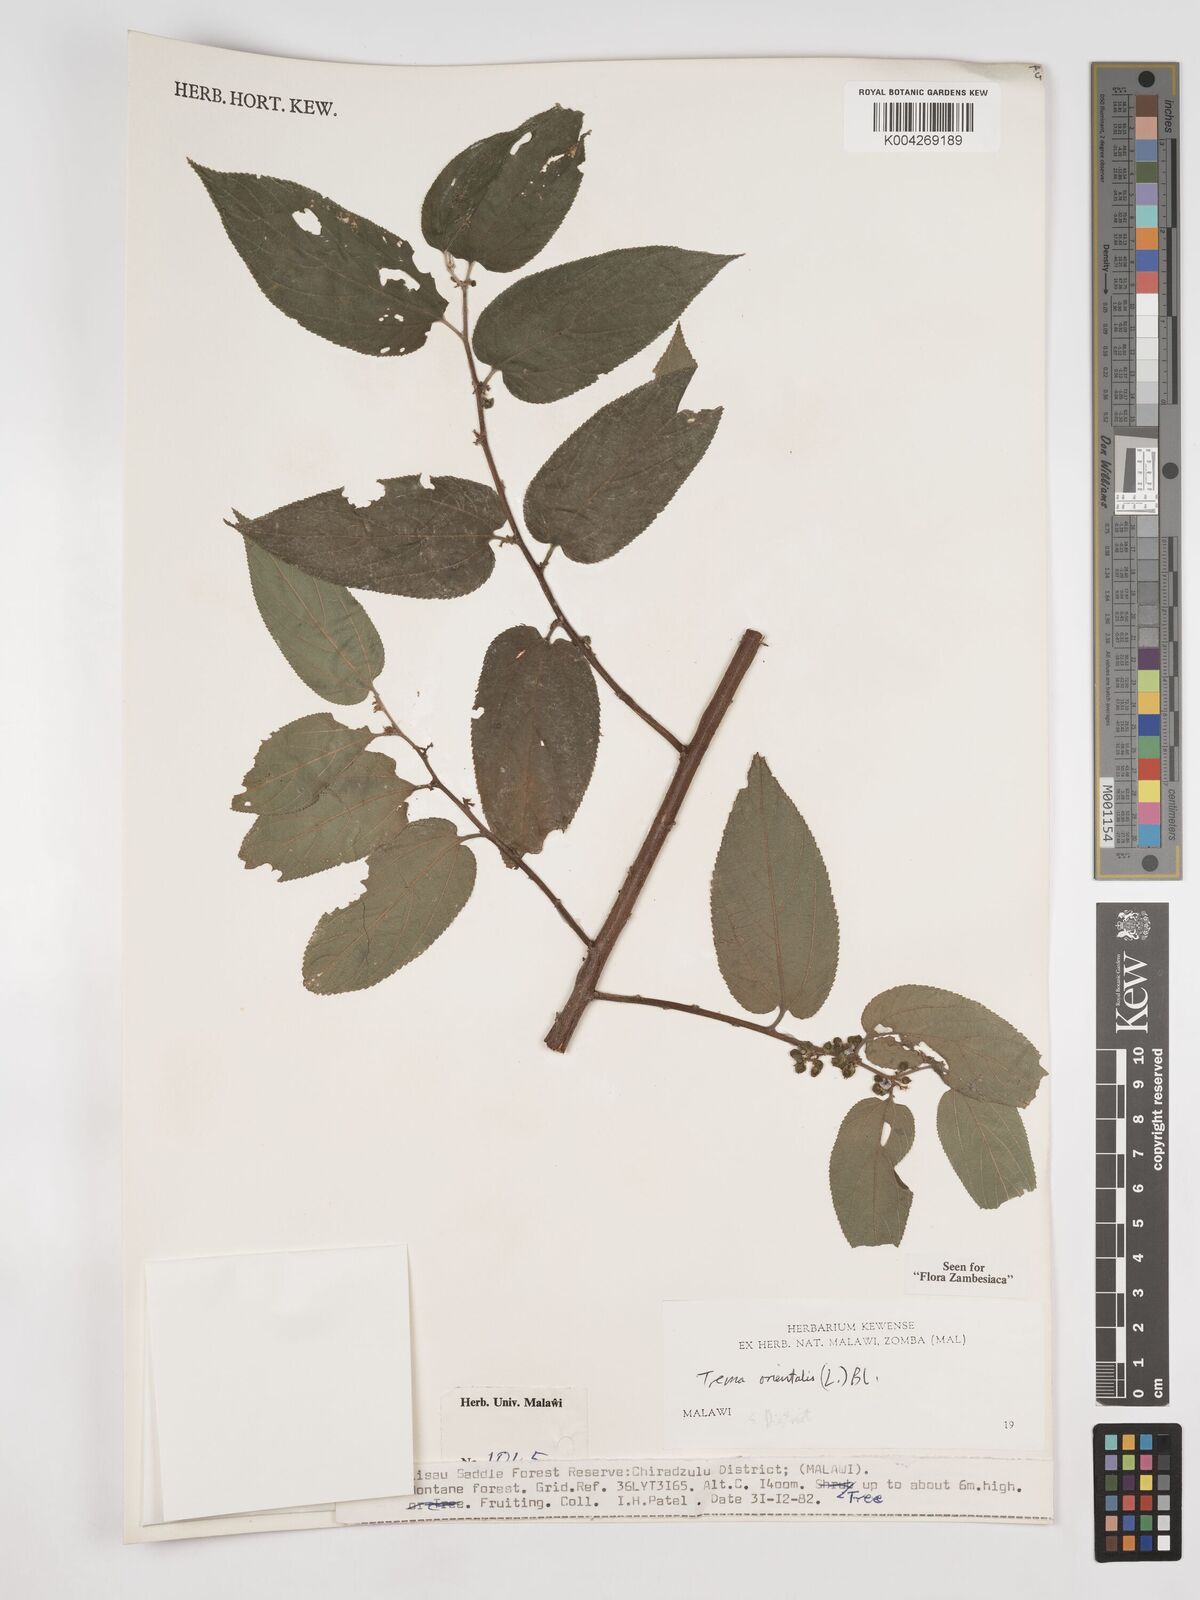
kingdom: Plantae
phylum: Tracheophyta
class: Magnoliopsida
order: Rosales
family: Cannabaceae
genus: Trema
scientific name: Trema orientale
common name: Indian charcoal tree
